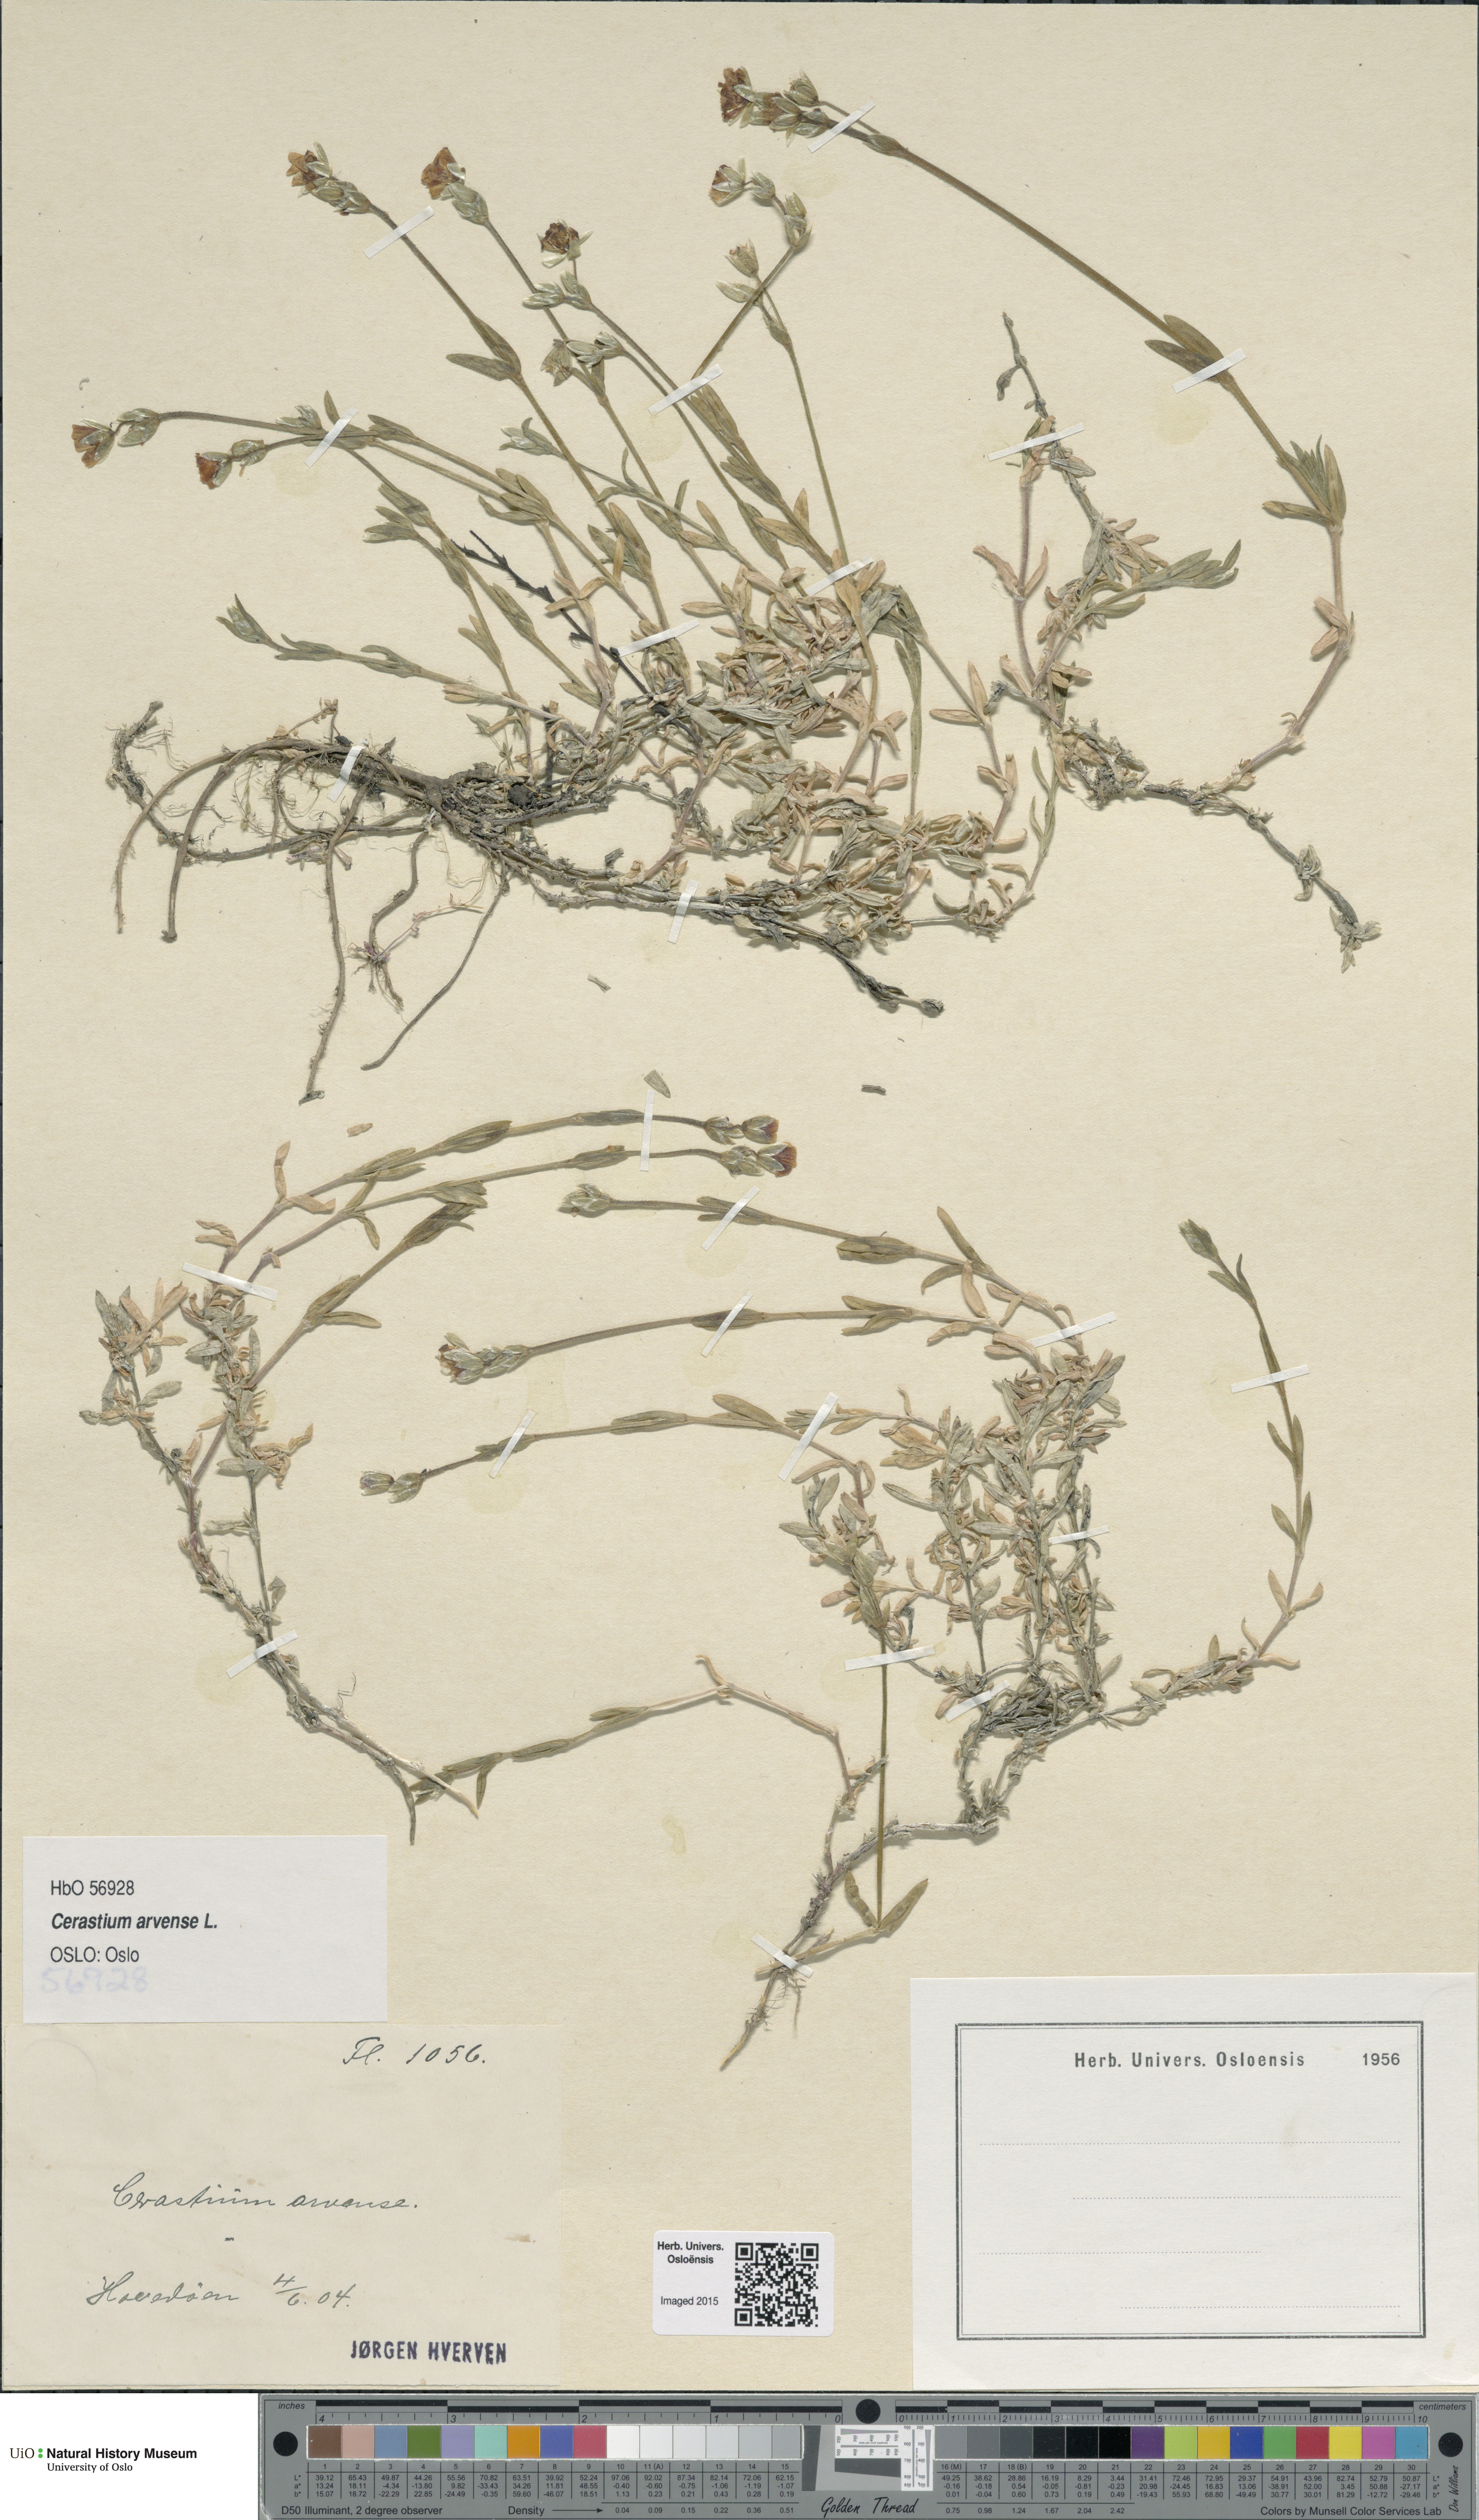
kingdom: Plantae
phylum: Tracheophyta
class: Magnoliopsida
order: Caryophyllales
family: Caryophyllaceae
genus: Cerastium
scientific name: Cerastium arvense
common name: Field mouse-ear
